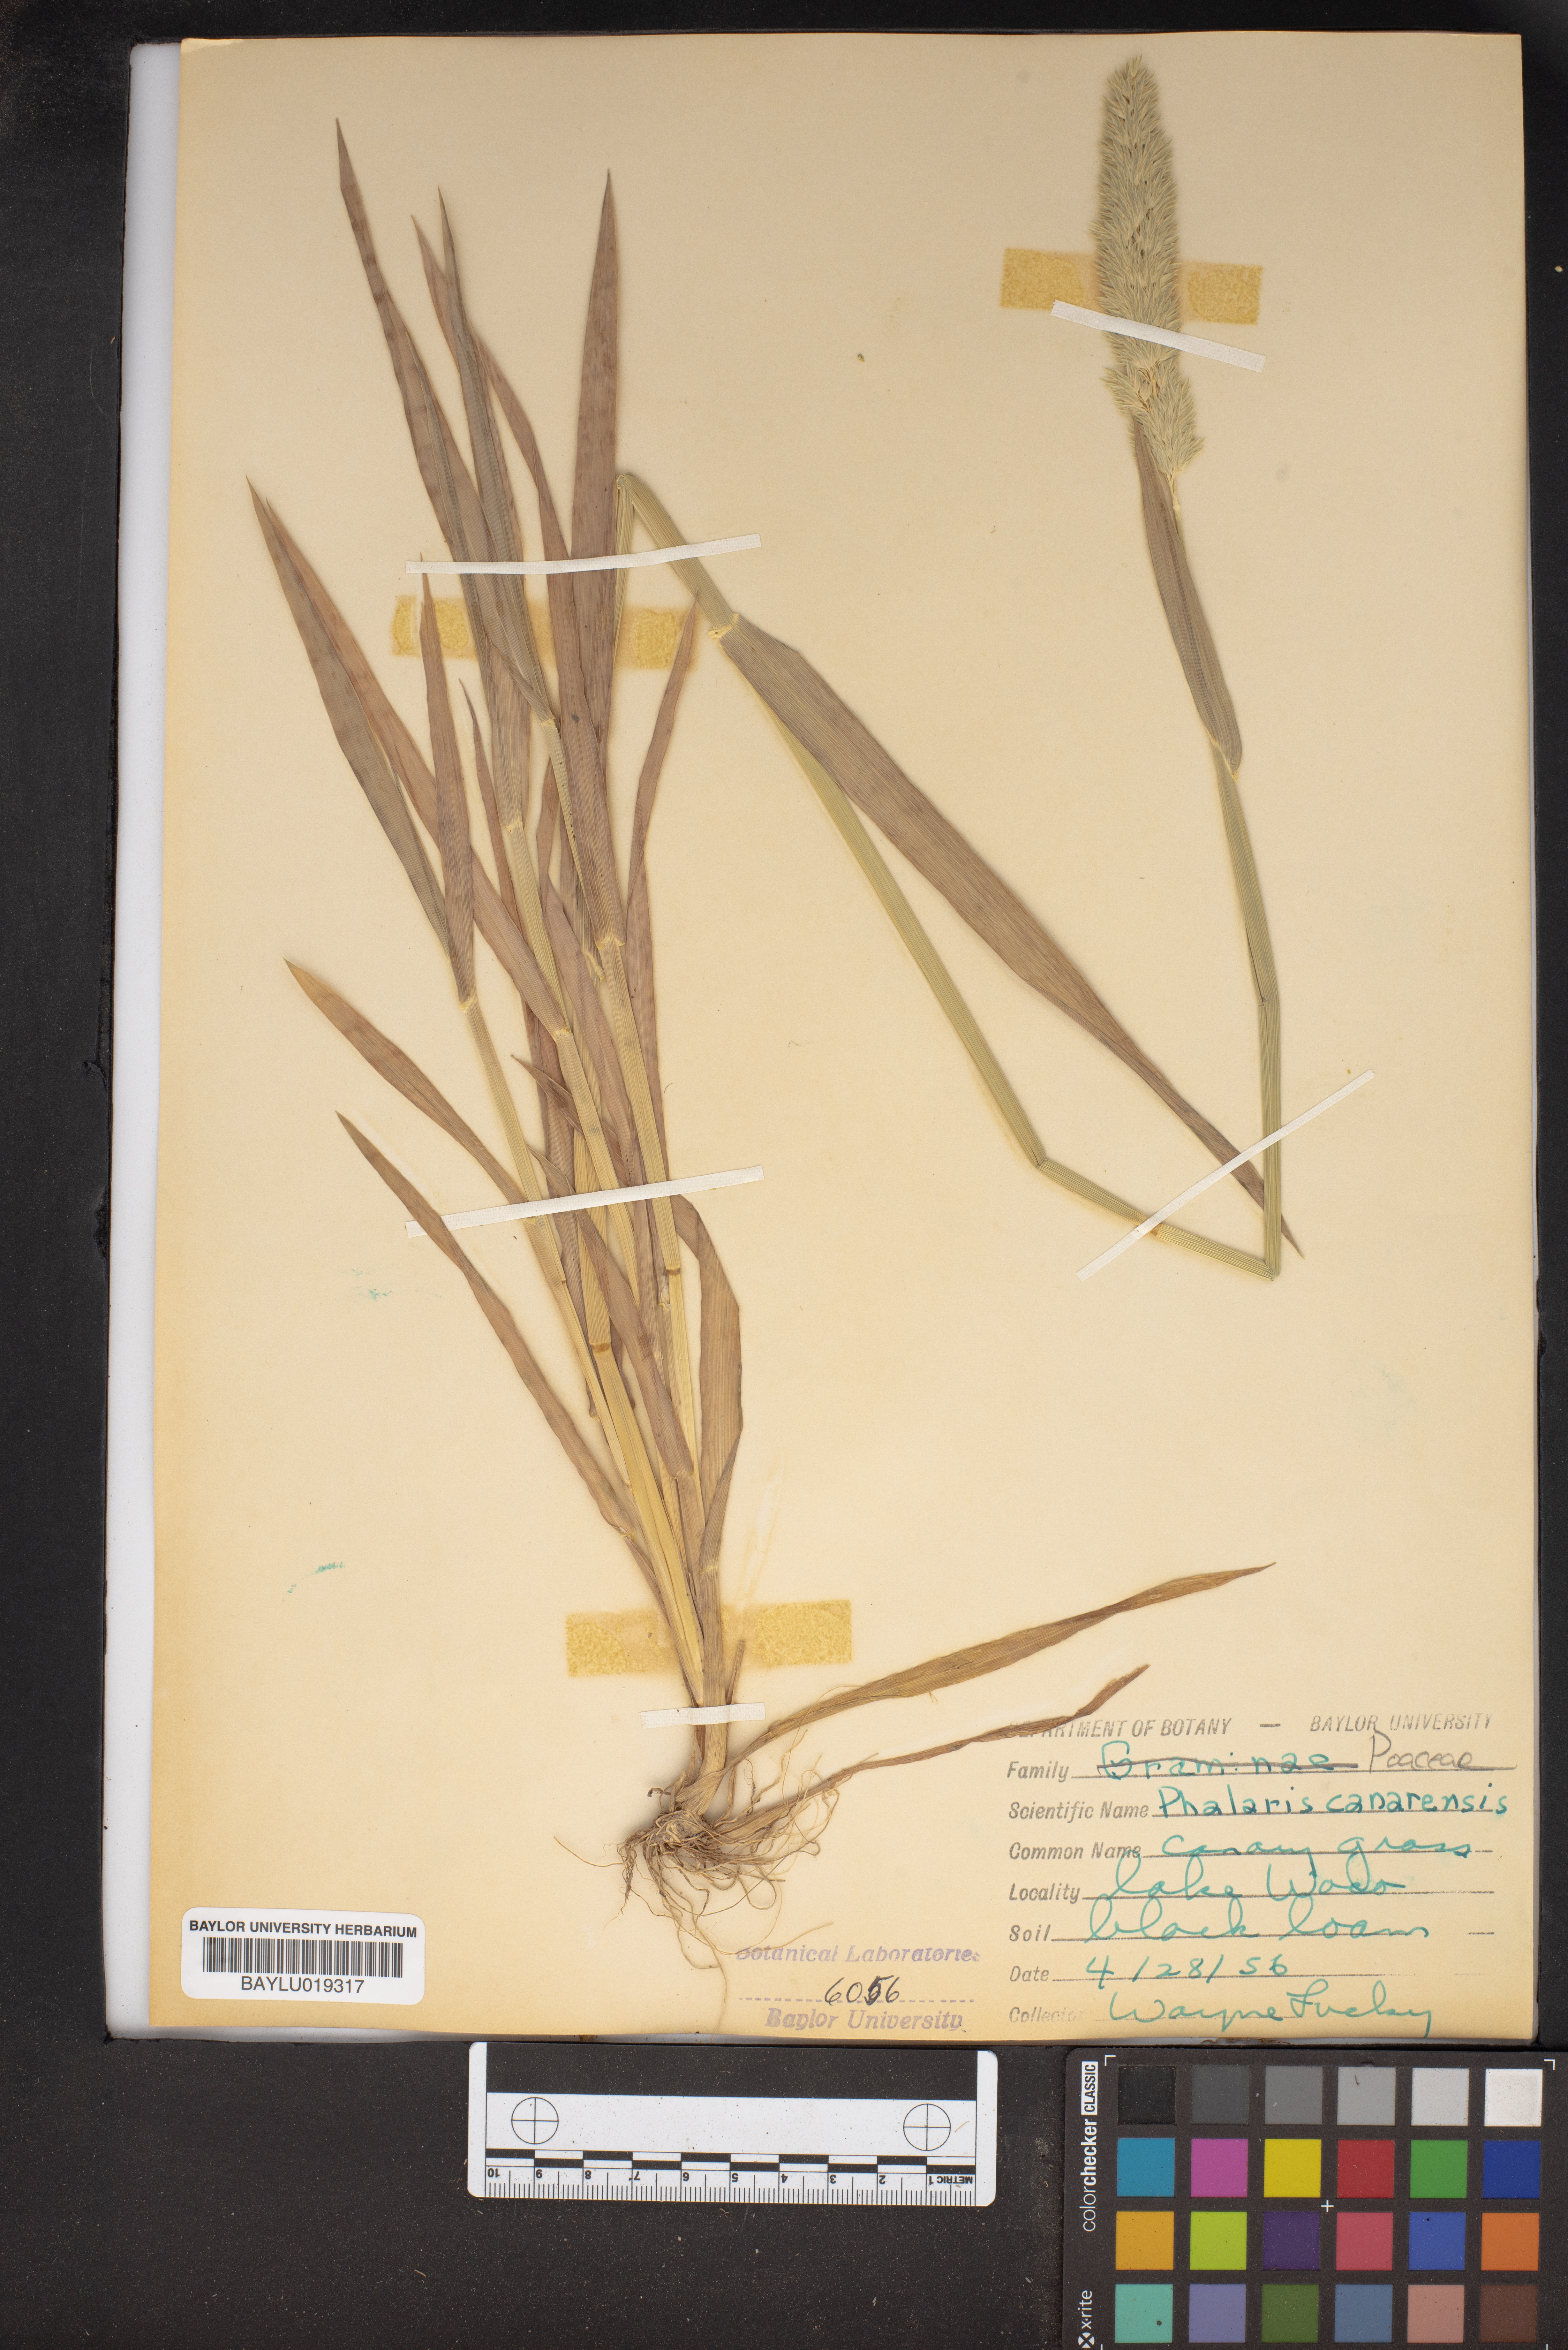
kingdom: Plantae
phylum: Tracheophyta
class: Liliopsida
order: Poales
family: Poaceae
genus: Phalaris
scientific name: Phalaris canariensis
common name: Annual canarygrass
